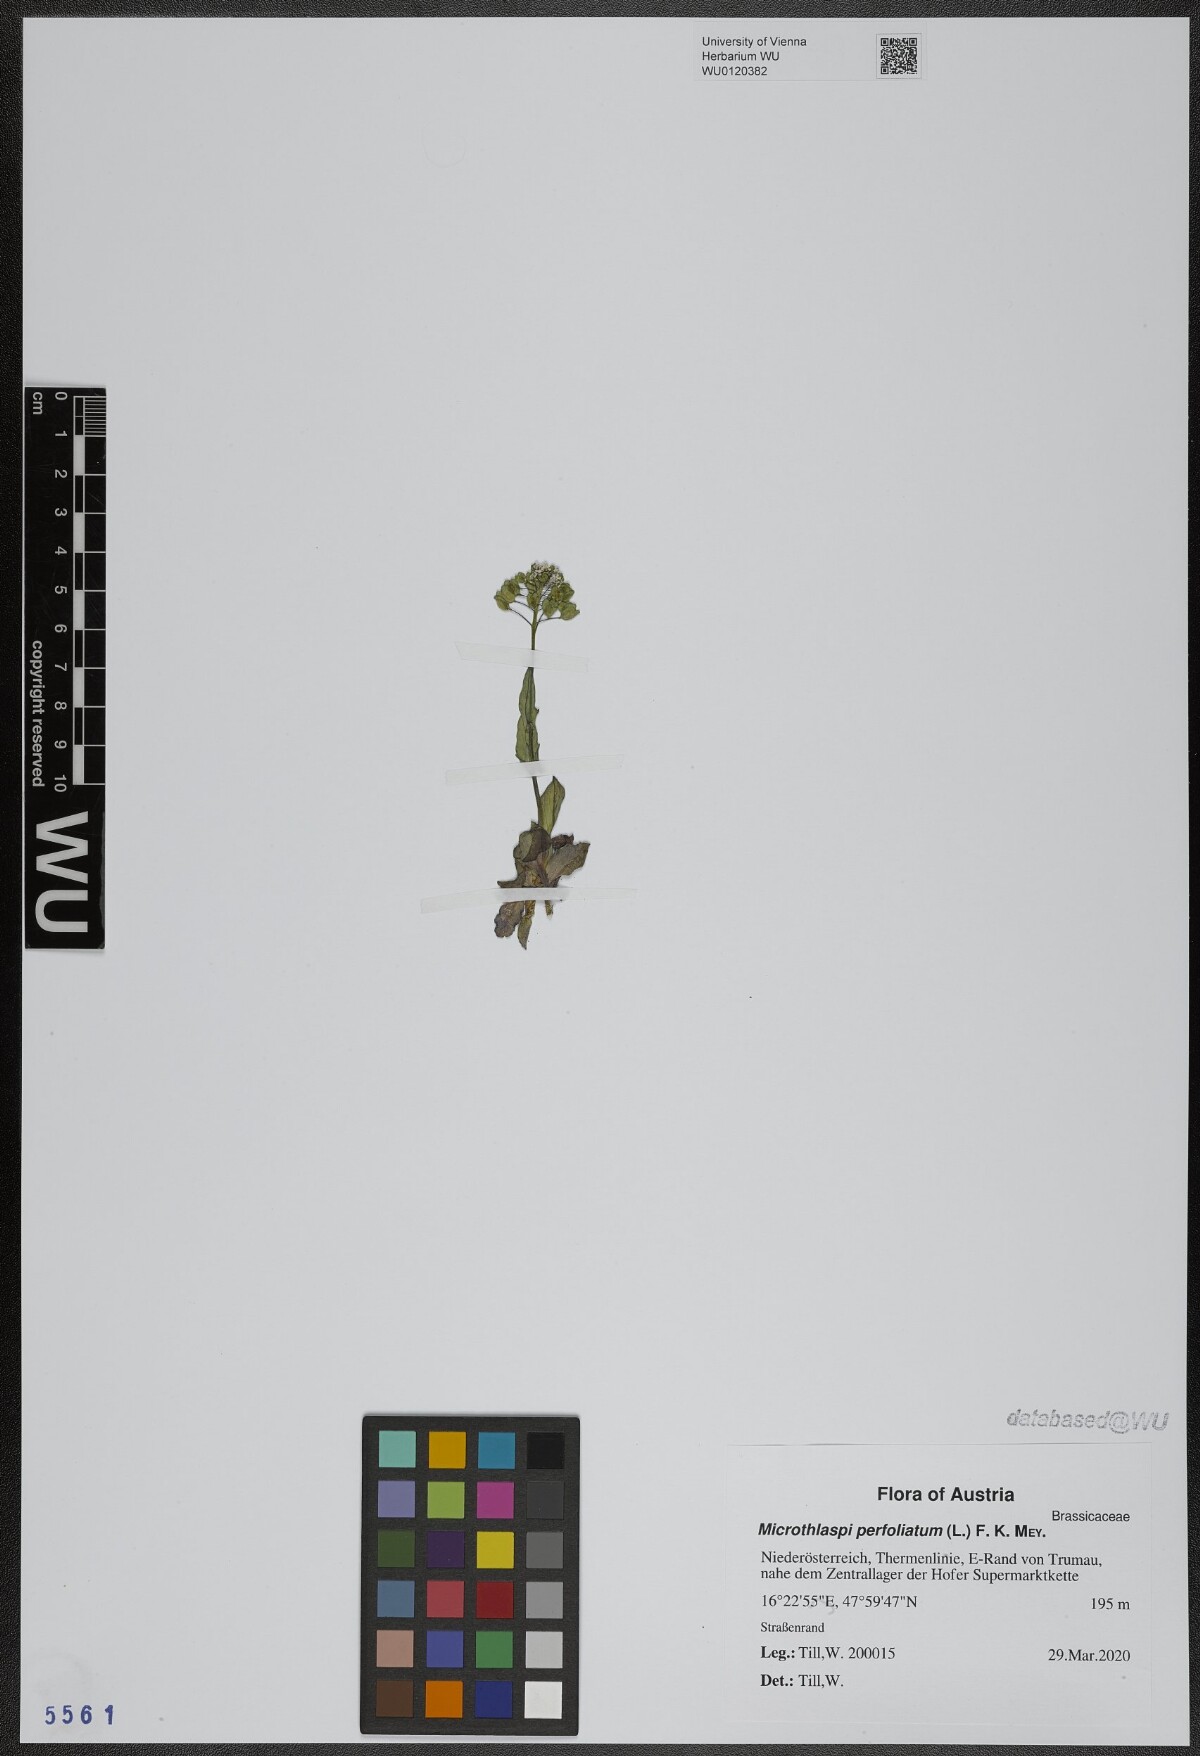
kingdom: Plantae
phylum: Tracheophyta
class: Magnoliopsida
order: Brassicales
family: Brassicaceae
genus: Noccaea
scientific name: Noccaea perfoliata
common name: Perfoliate pennycress
